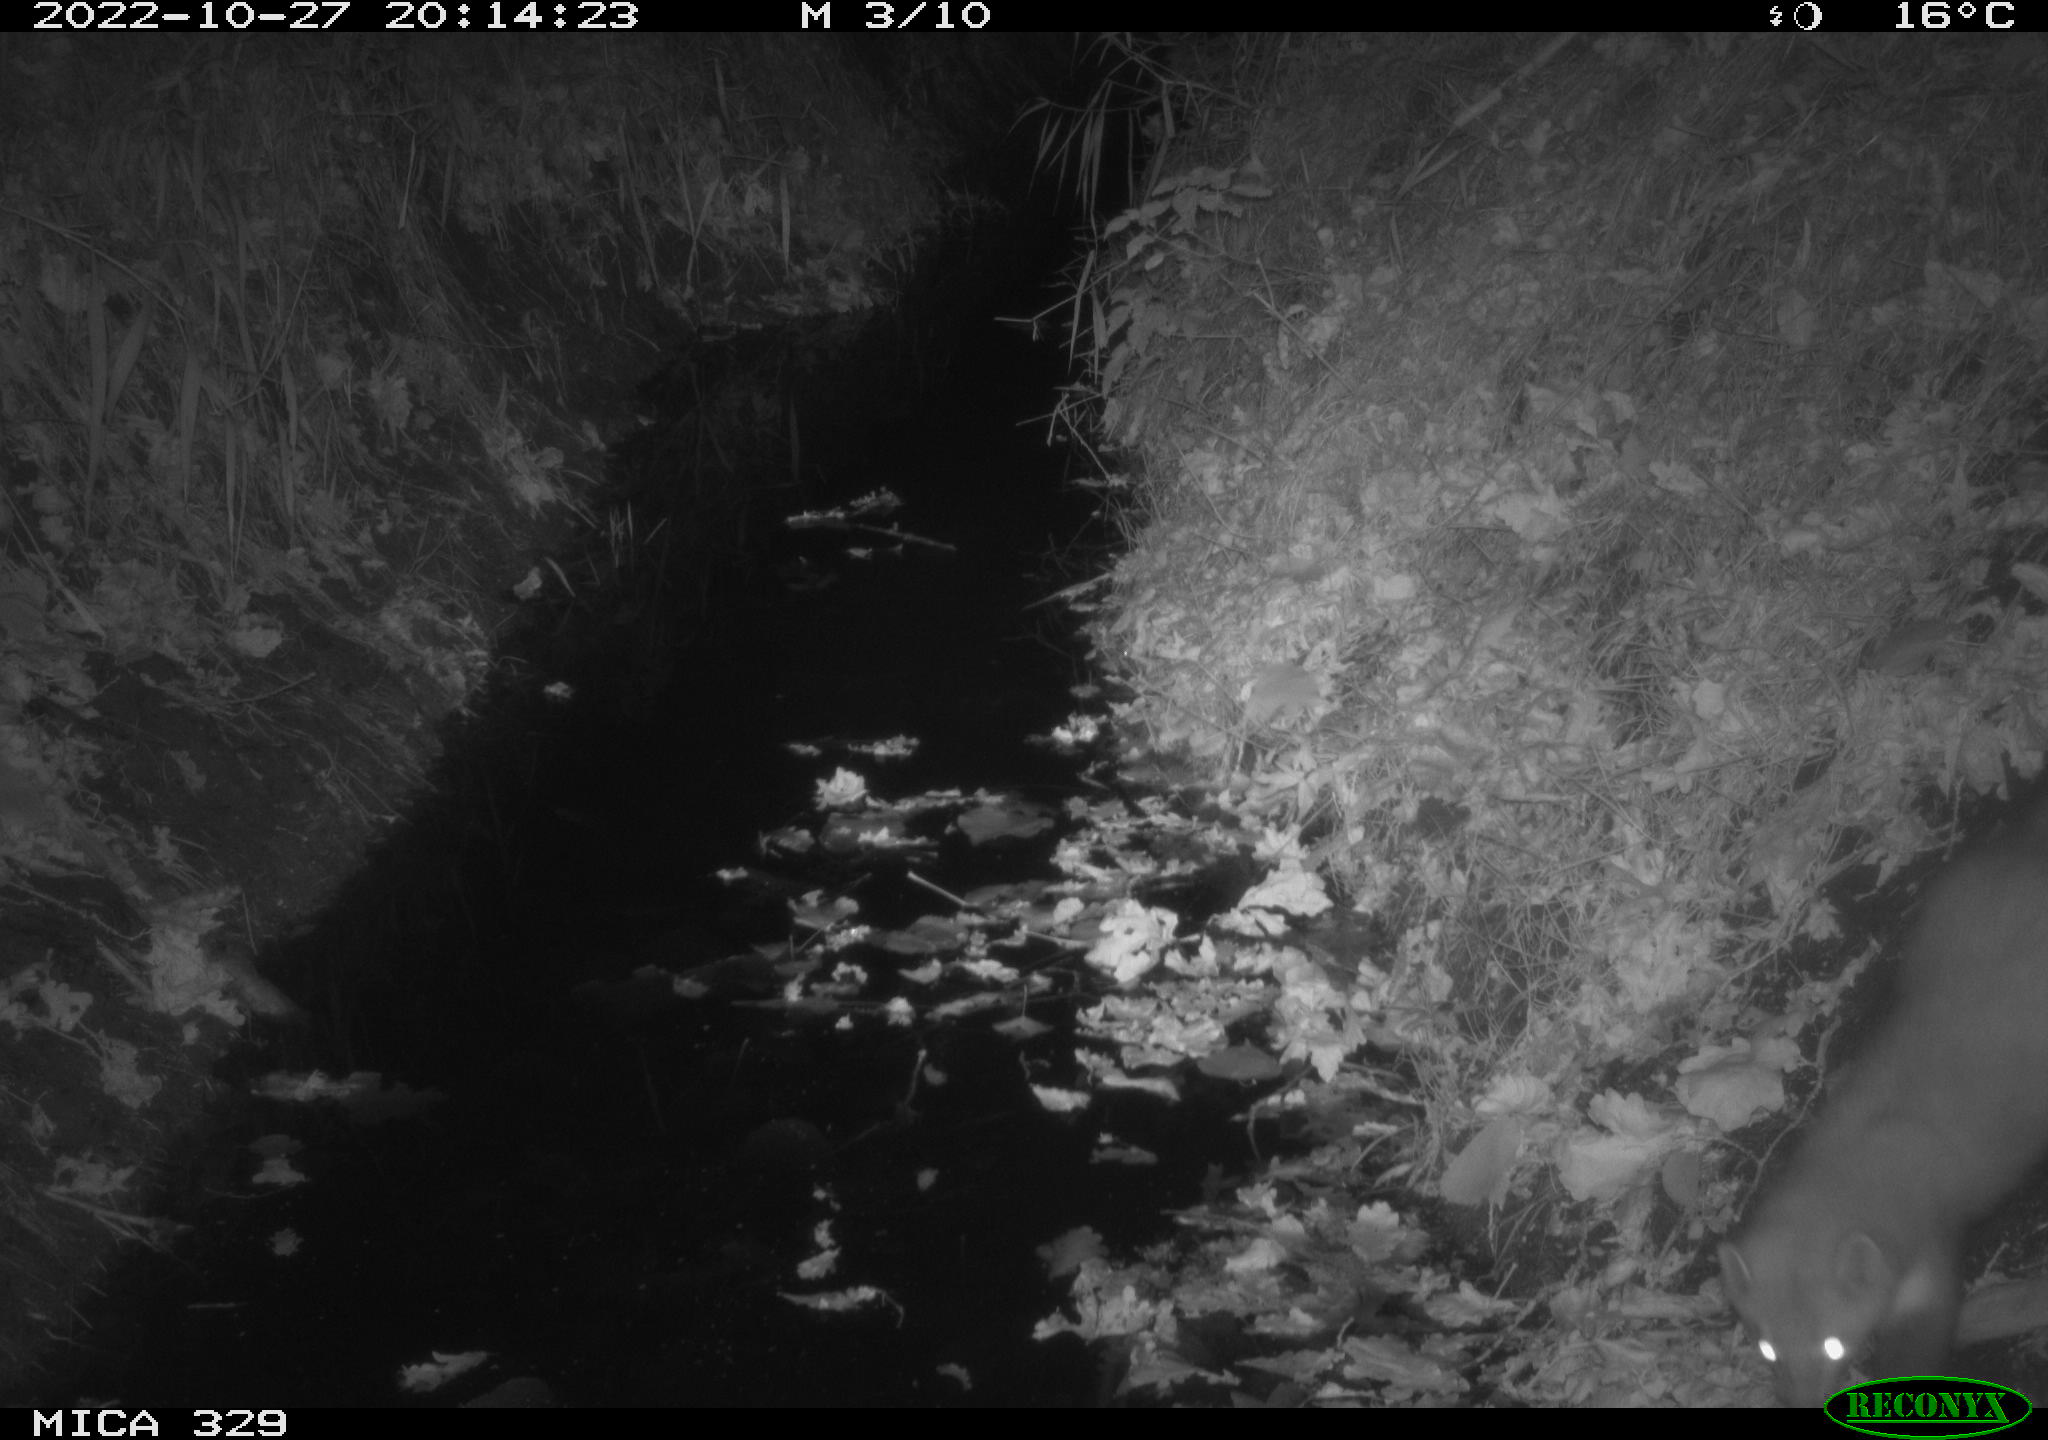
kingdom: Animalia
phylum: Chordata
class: Mammalia
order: Carnivora
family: Mustelidae
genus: Martes
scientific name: Martes foina
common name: Beech marten
